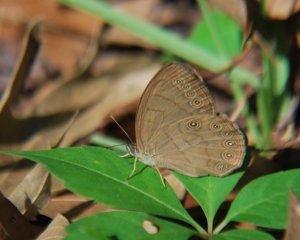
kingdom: Animalia
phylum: Arthropoda
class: Insecta
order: Lepidoptera
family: Nymphalidae
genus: Lethe
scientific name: Lethe eurydice
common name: Appalachian Eyed Brown
